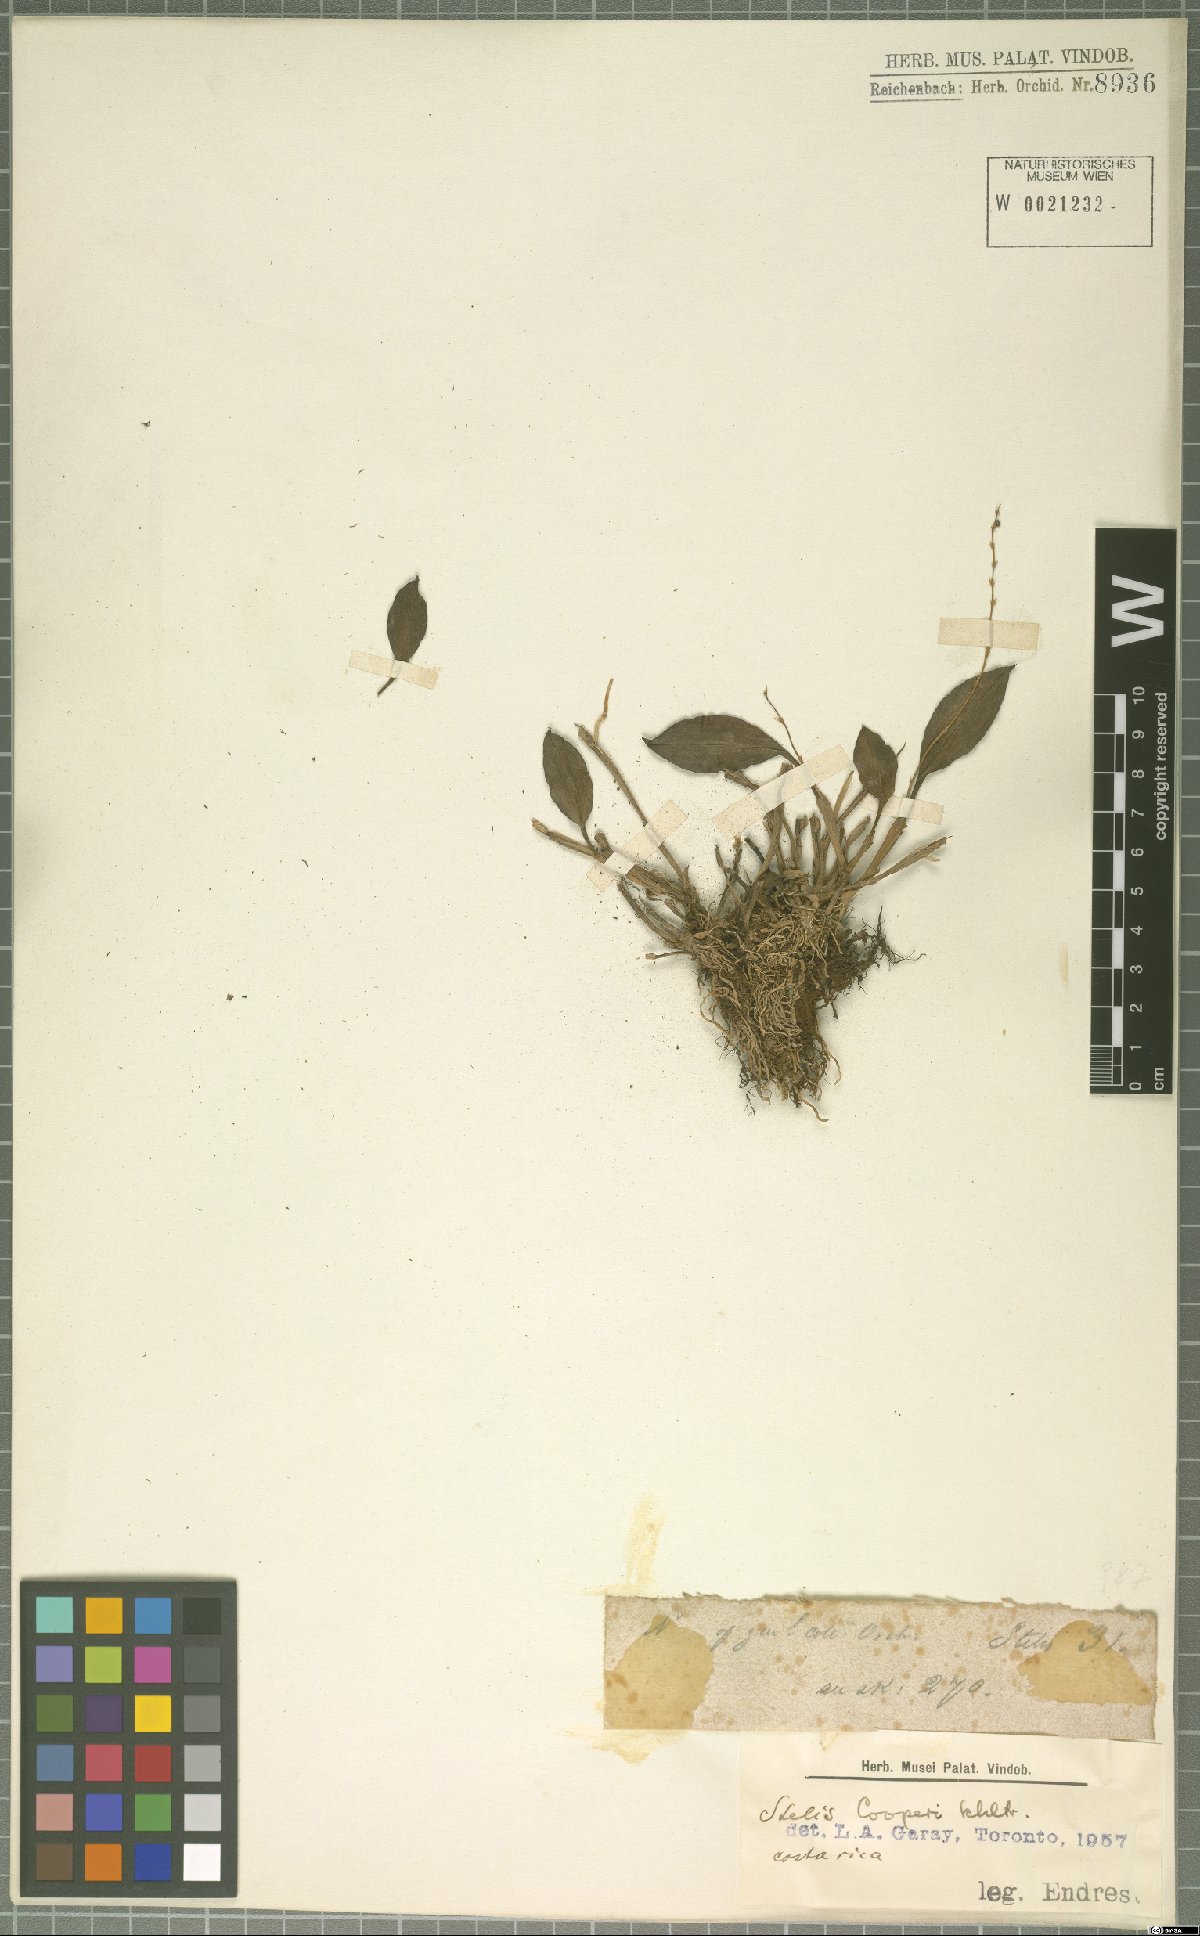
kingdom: Plantae
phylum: Tracheophyta
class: Liliopsida
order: Asparagales
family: Orchidaceae
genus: Stelis
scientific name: Stelis cooperi
